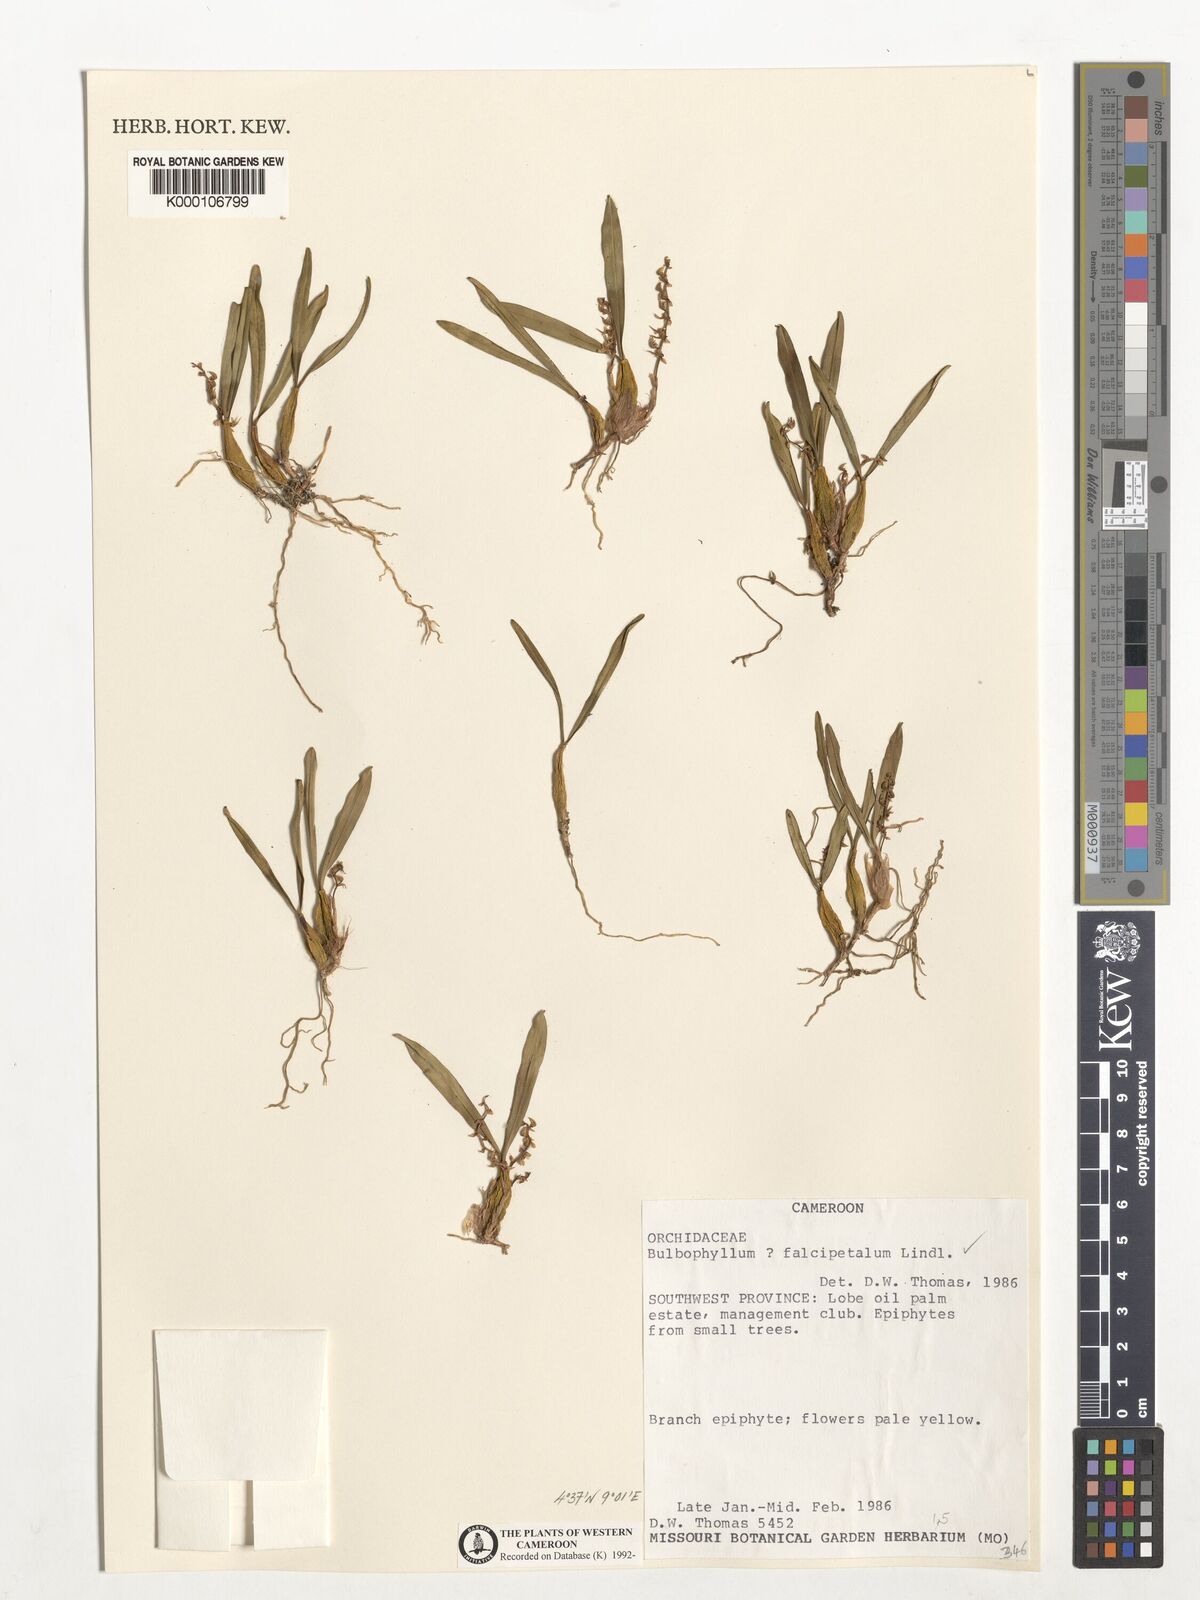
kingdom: Plantae
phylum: Tracheophyta
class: Liliopsida
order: Asparagales
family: Orchidaceae
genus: Bulbophyllum
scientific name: Bulbophyllum falcipetalum
